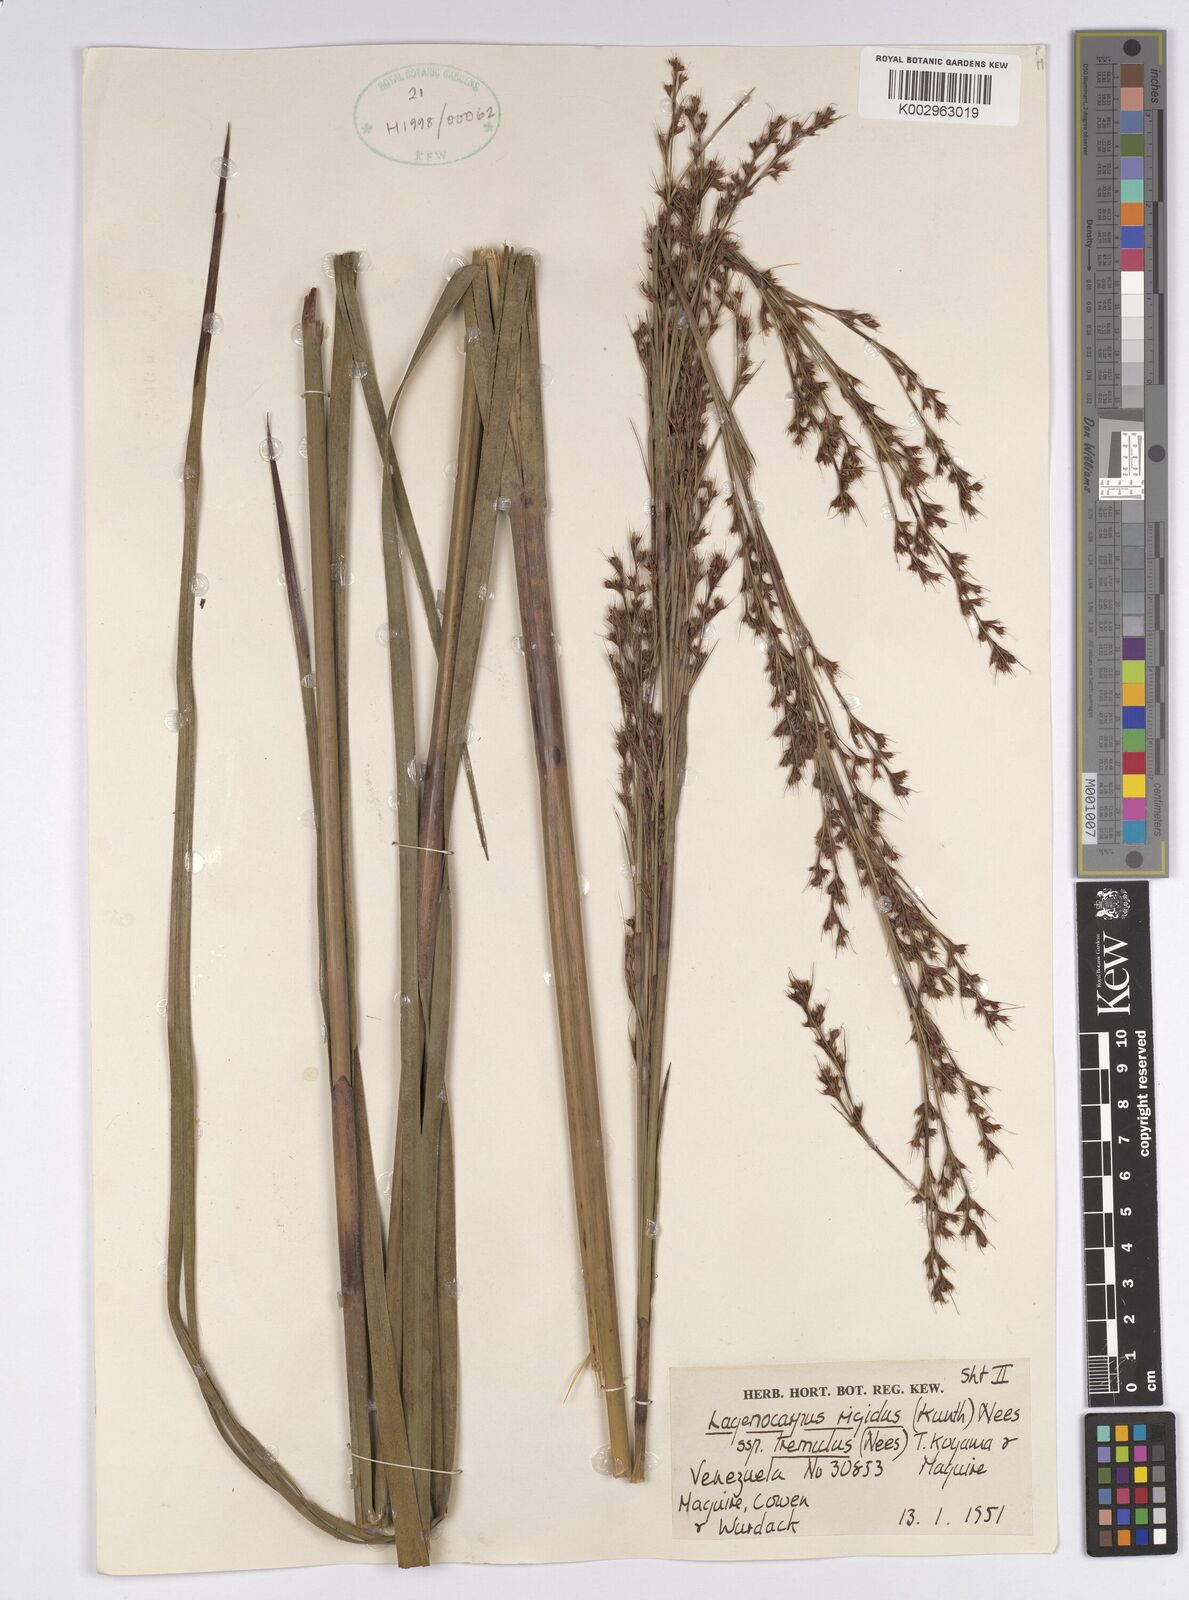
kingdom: Plantae
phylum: Tracheophyta
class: Liliopsida
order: Poales
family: Cyperaceae
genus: Lagenocarpus
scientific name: Lagenocarpus rigidus
